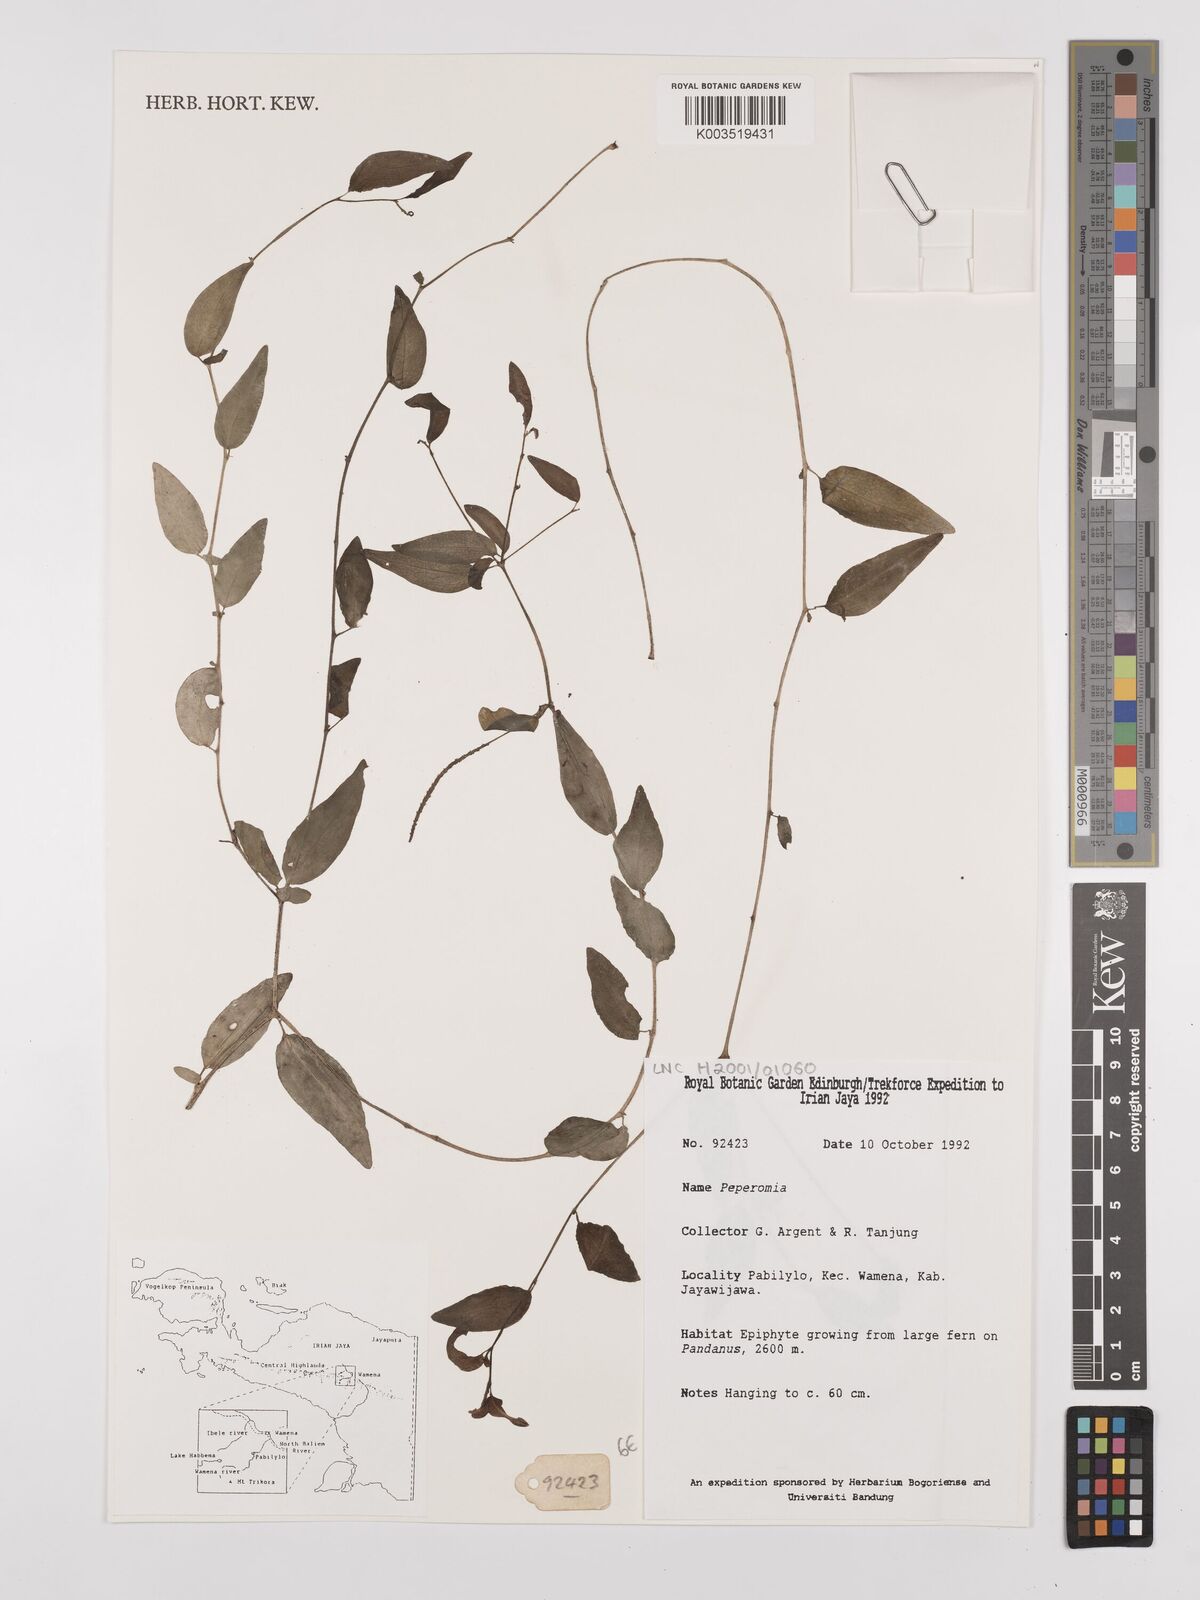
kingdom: Plantae
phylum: Tracheophyta
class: Magnoliopsida
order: Piperales
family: Piperaceae
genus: Peperomia
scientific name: Peperomia
